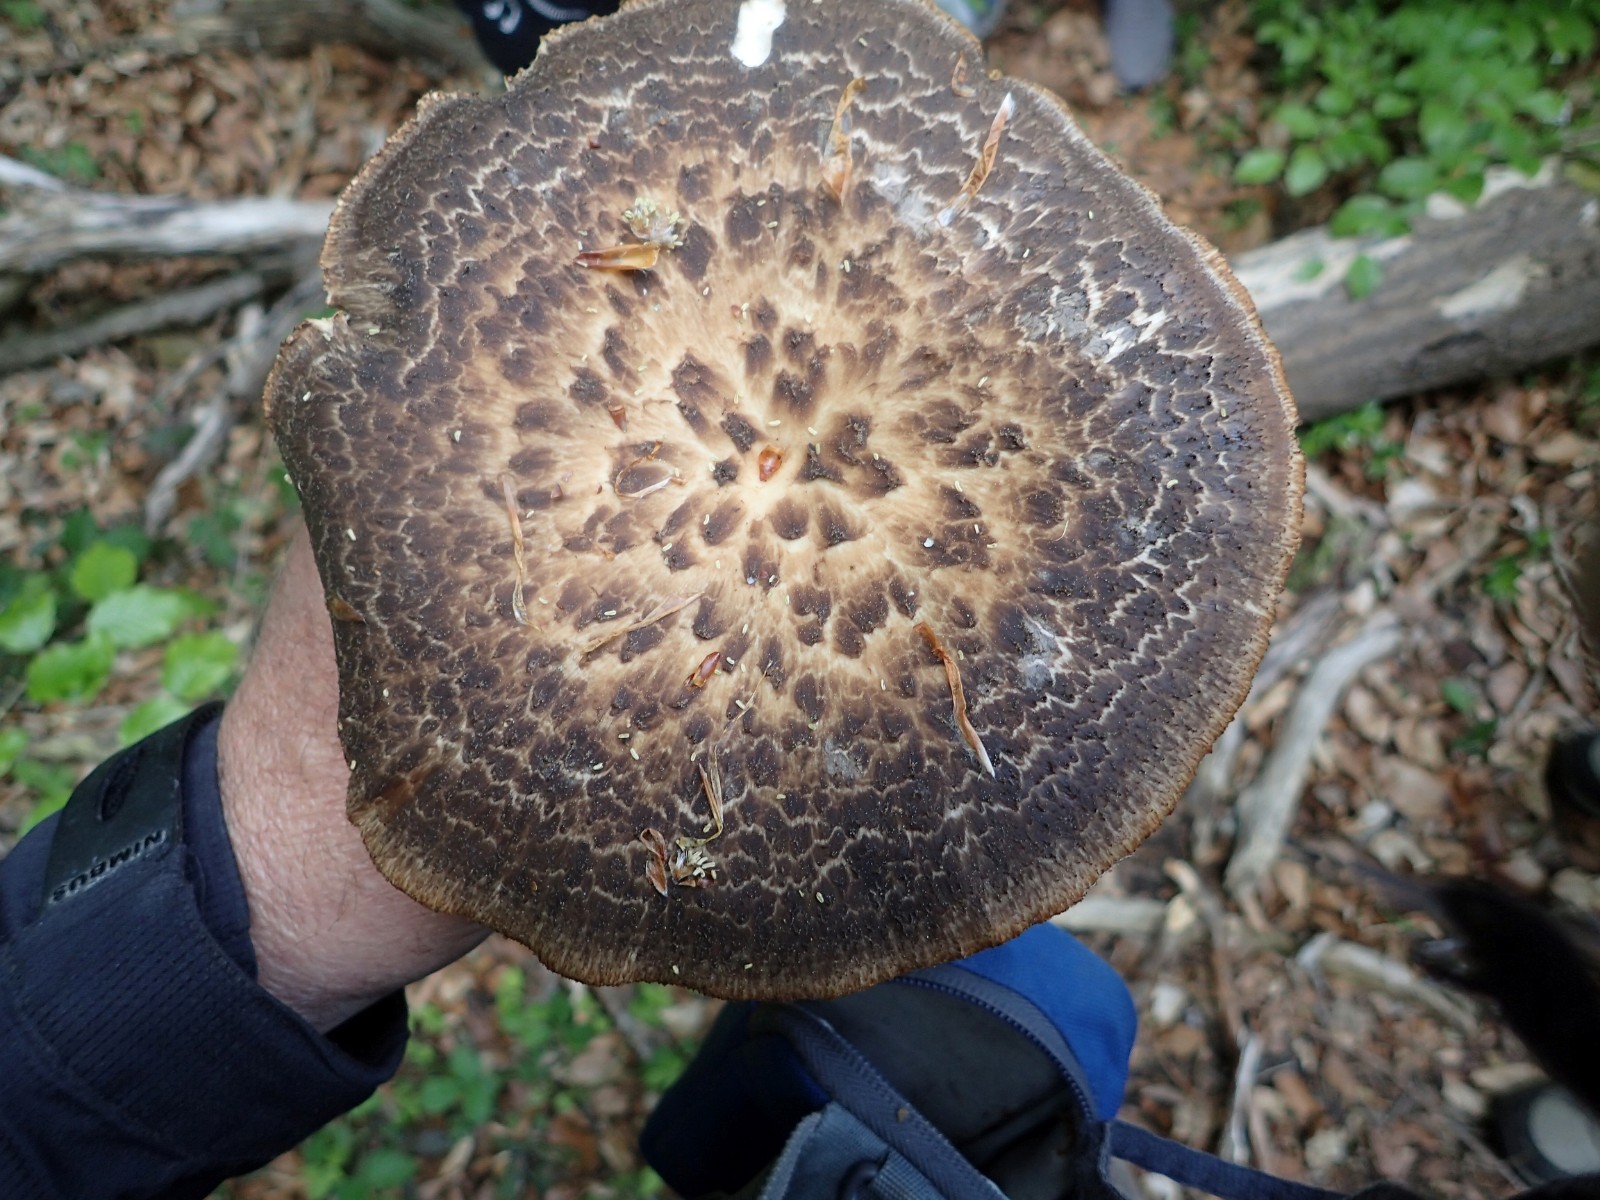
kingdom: Fungi
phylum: Basidiomycota
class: Agaricomycetes
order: Polyporales
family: Polyporaceae
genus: Polyporus
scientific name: Polyporus tuberaster
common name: knoldet stilkporesvamp
